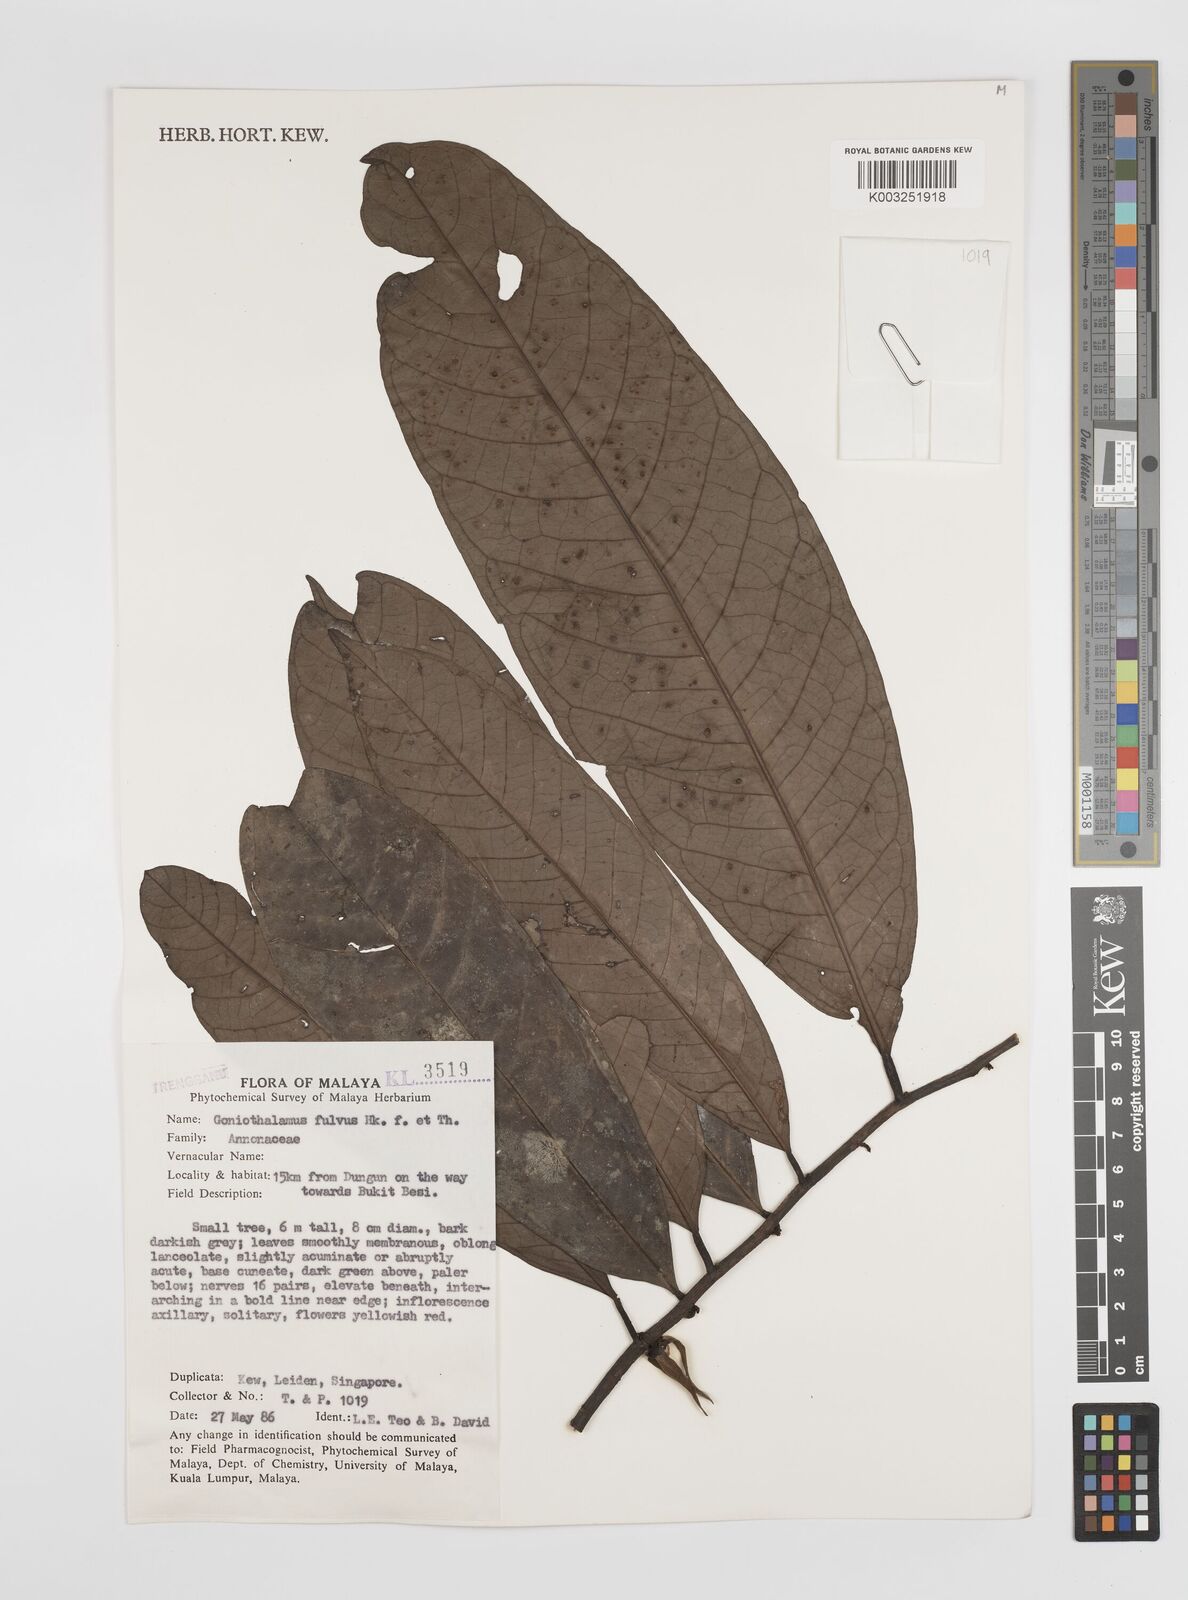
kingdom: Plantae
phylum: Tracheophyta
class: Magnoliopsida
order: Magnoliales
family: Annonaceae
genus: Goniothalamus
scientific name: Goniothalamus fulvus
